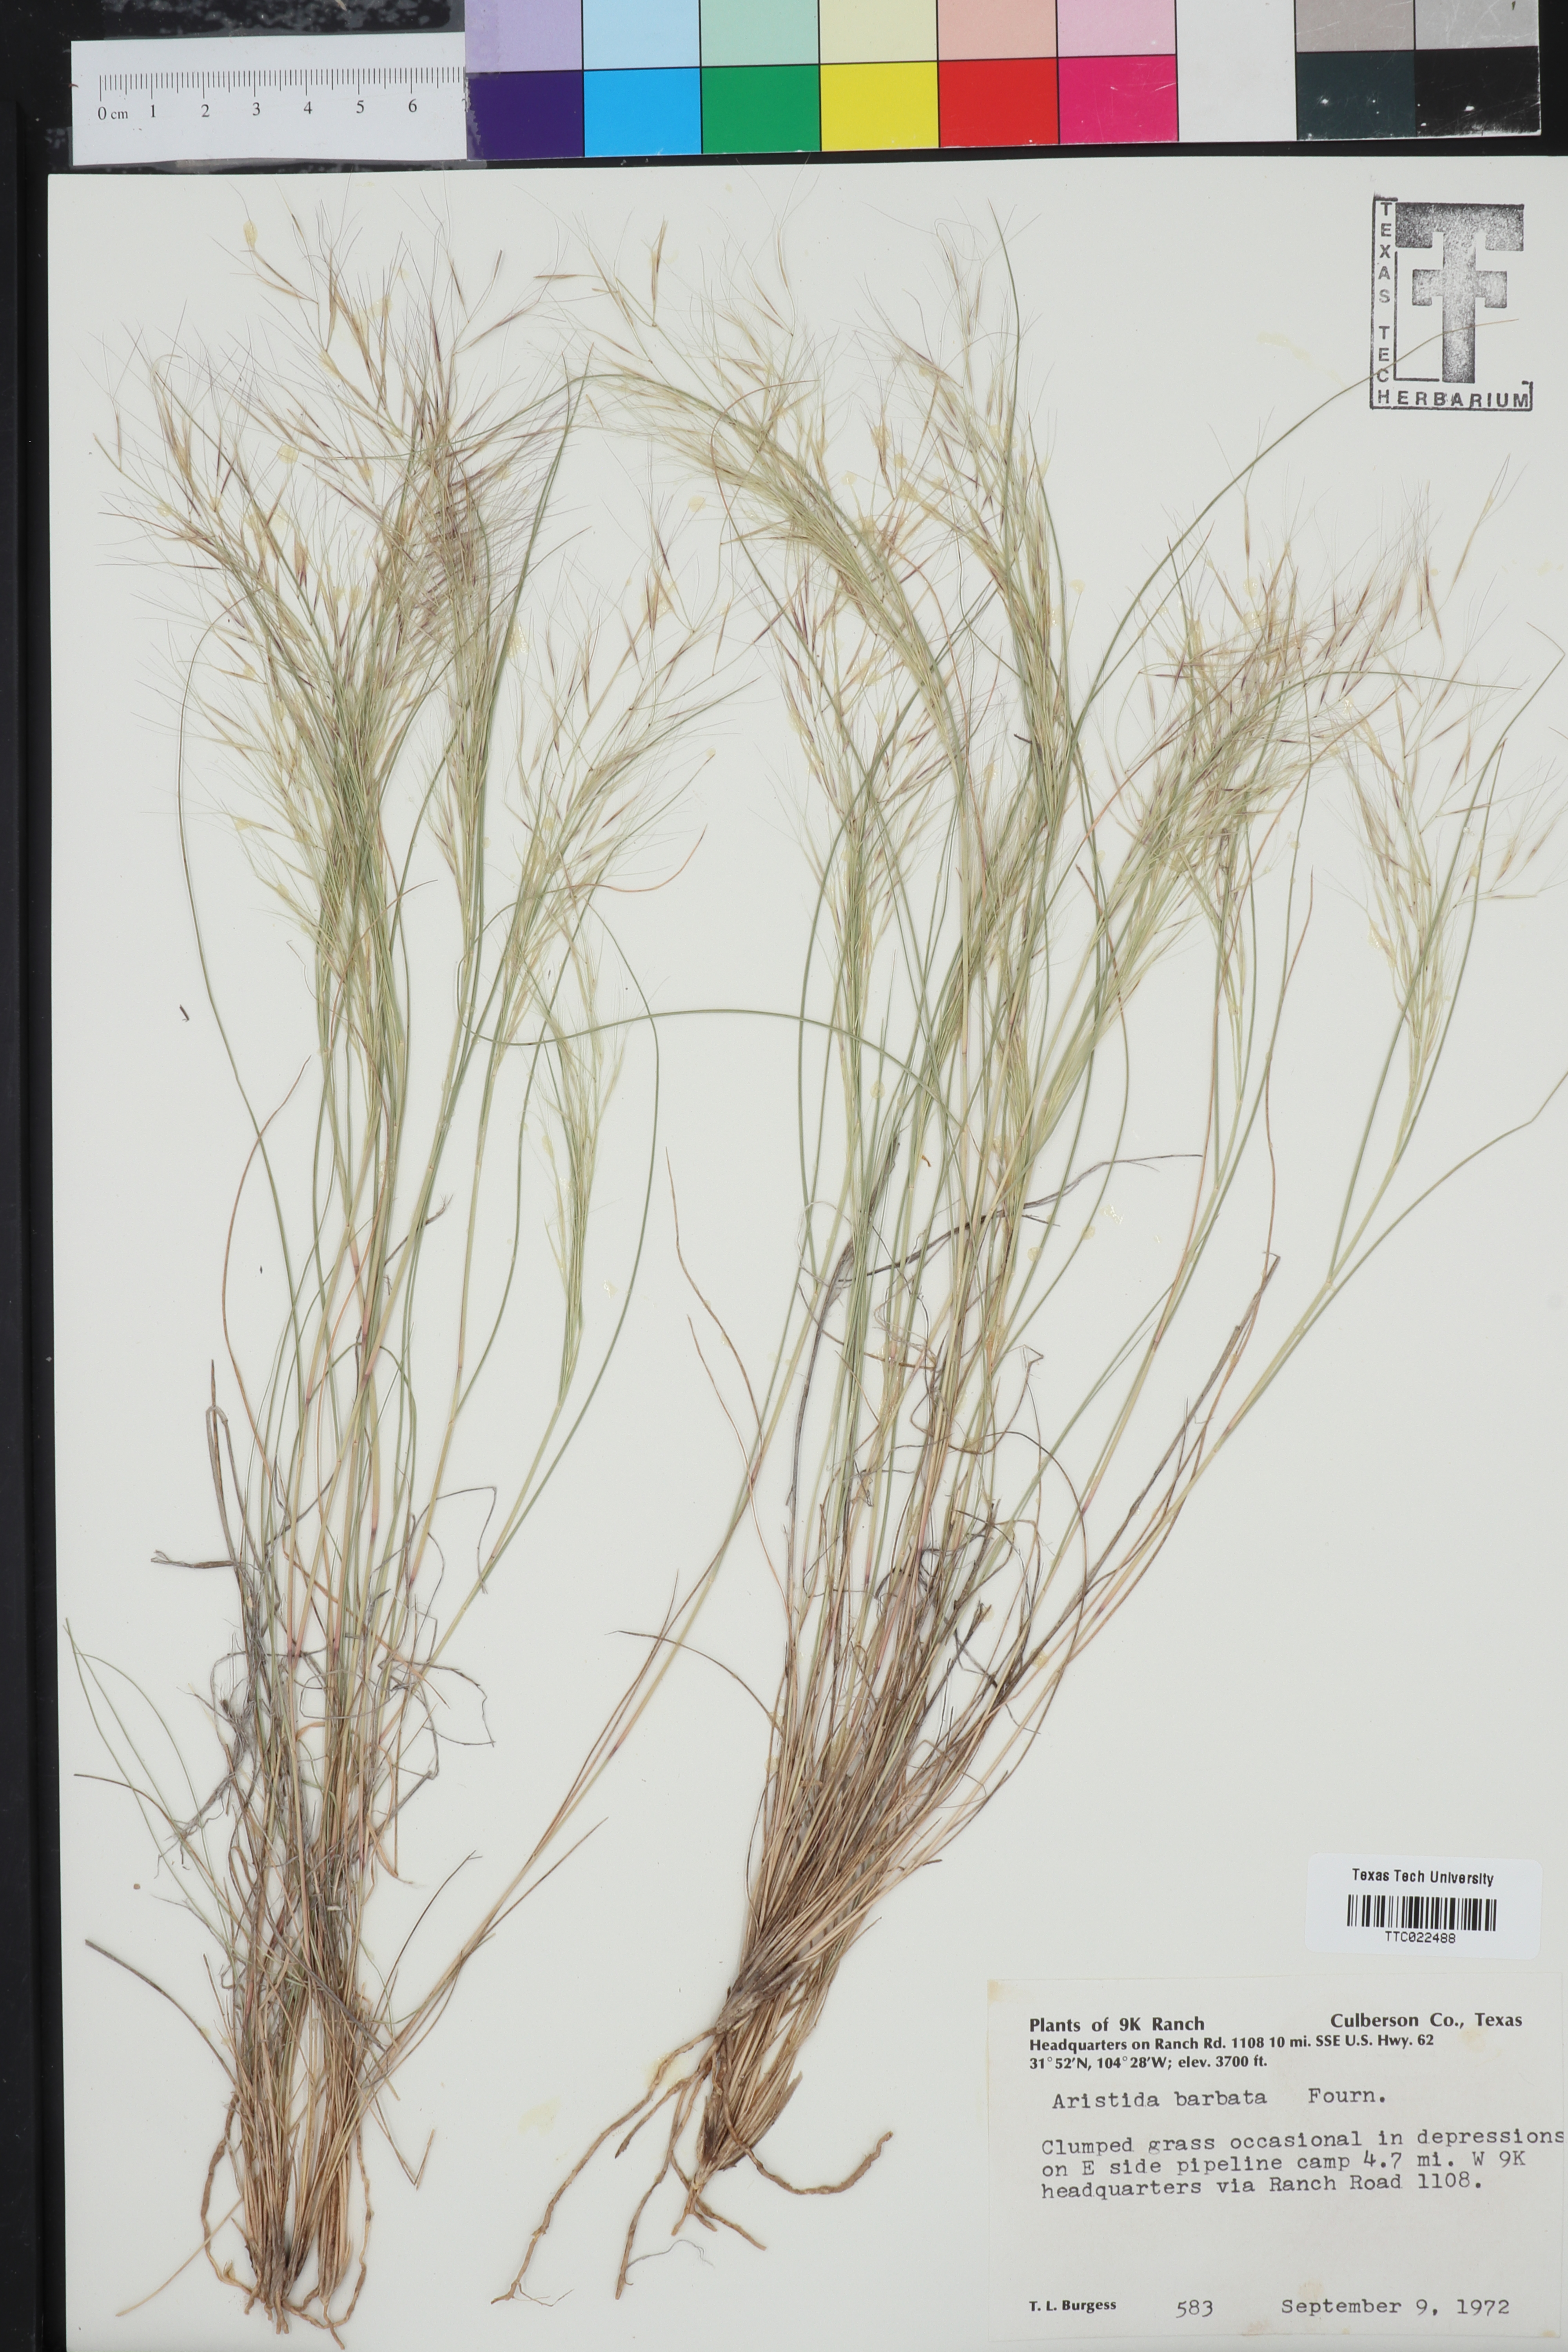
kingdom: Plantae
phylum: Tracheophyta
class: Liliopsida
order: Poales
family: Poaceae
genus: Aristida
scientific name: Aristida barbata
